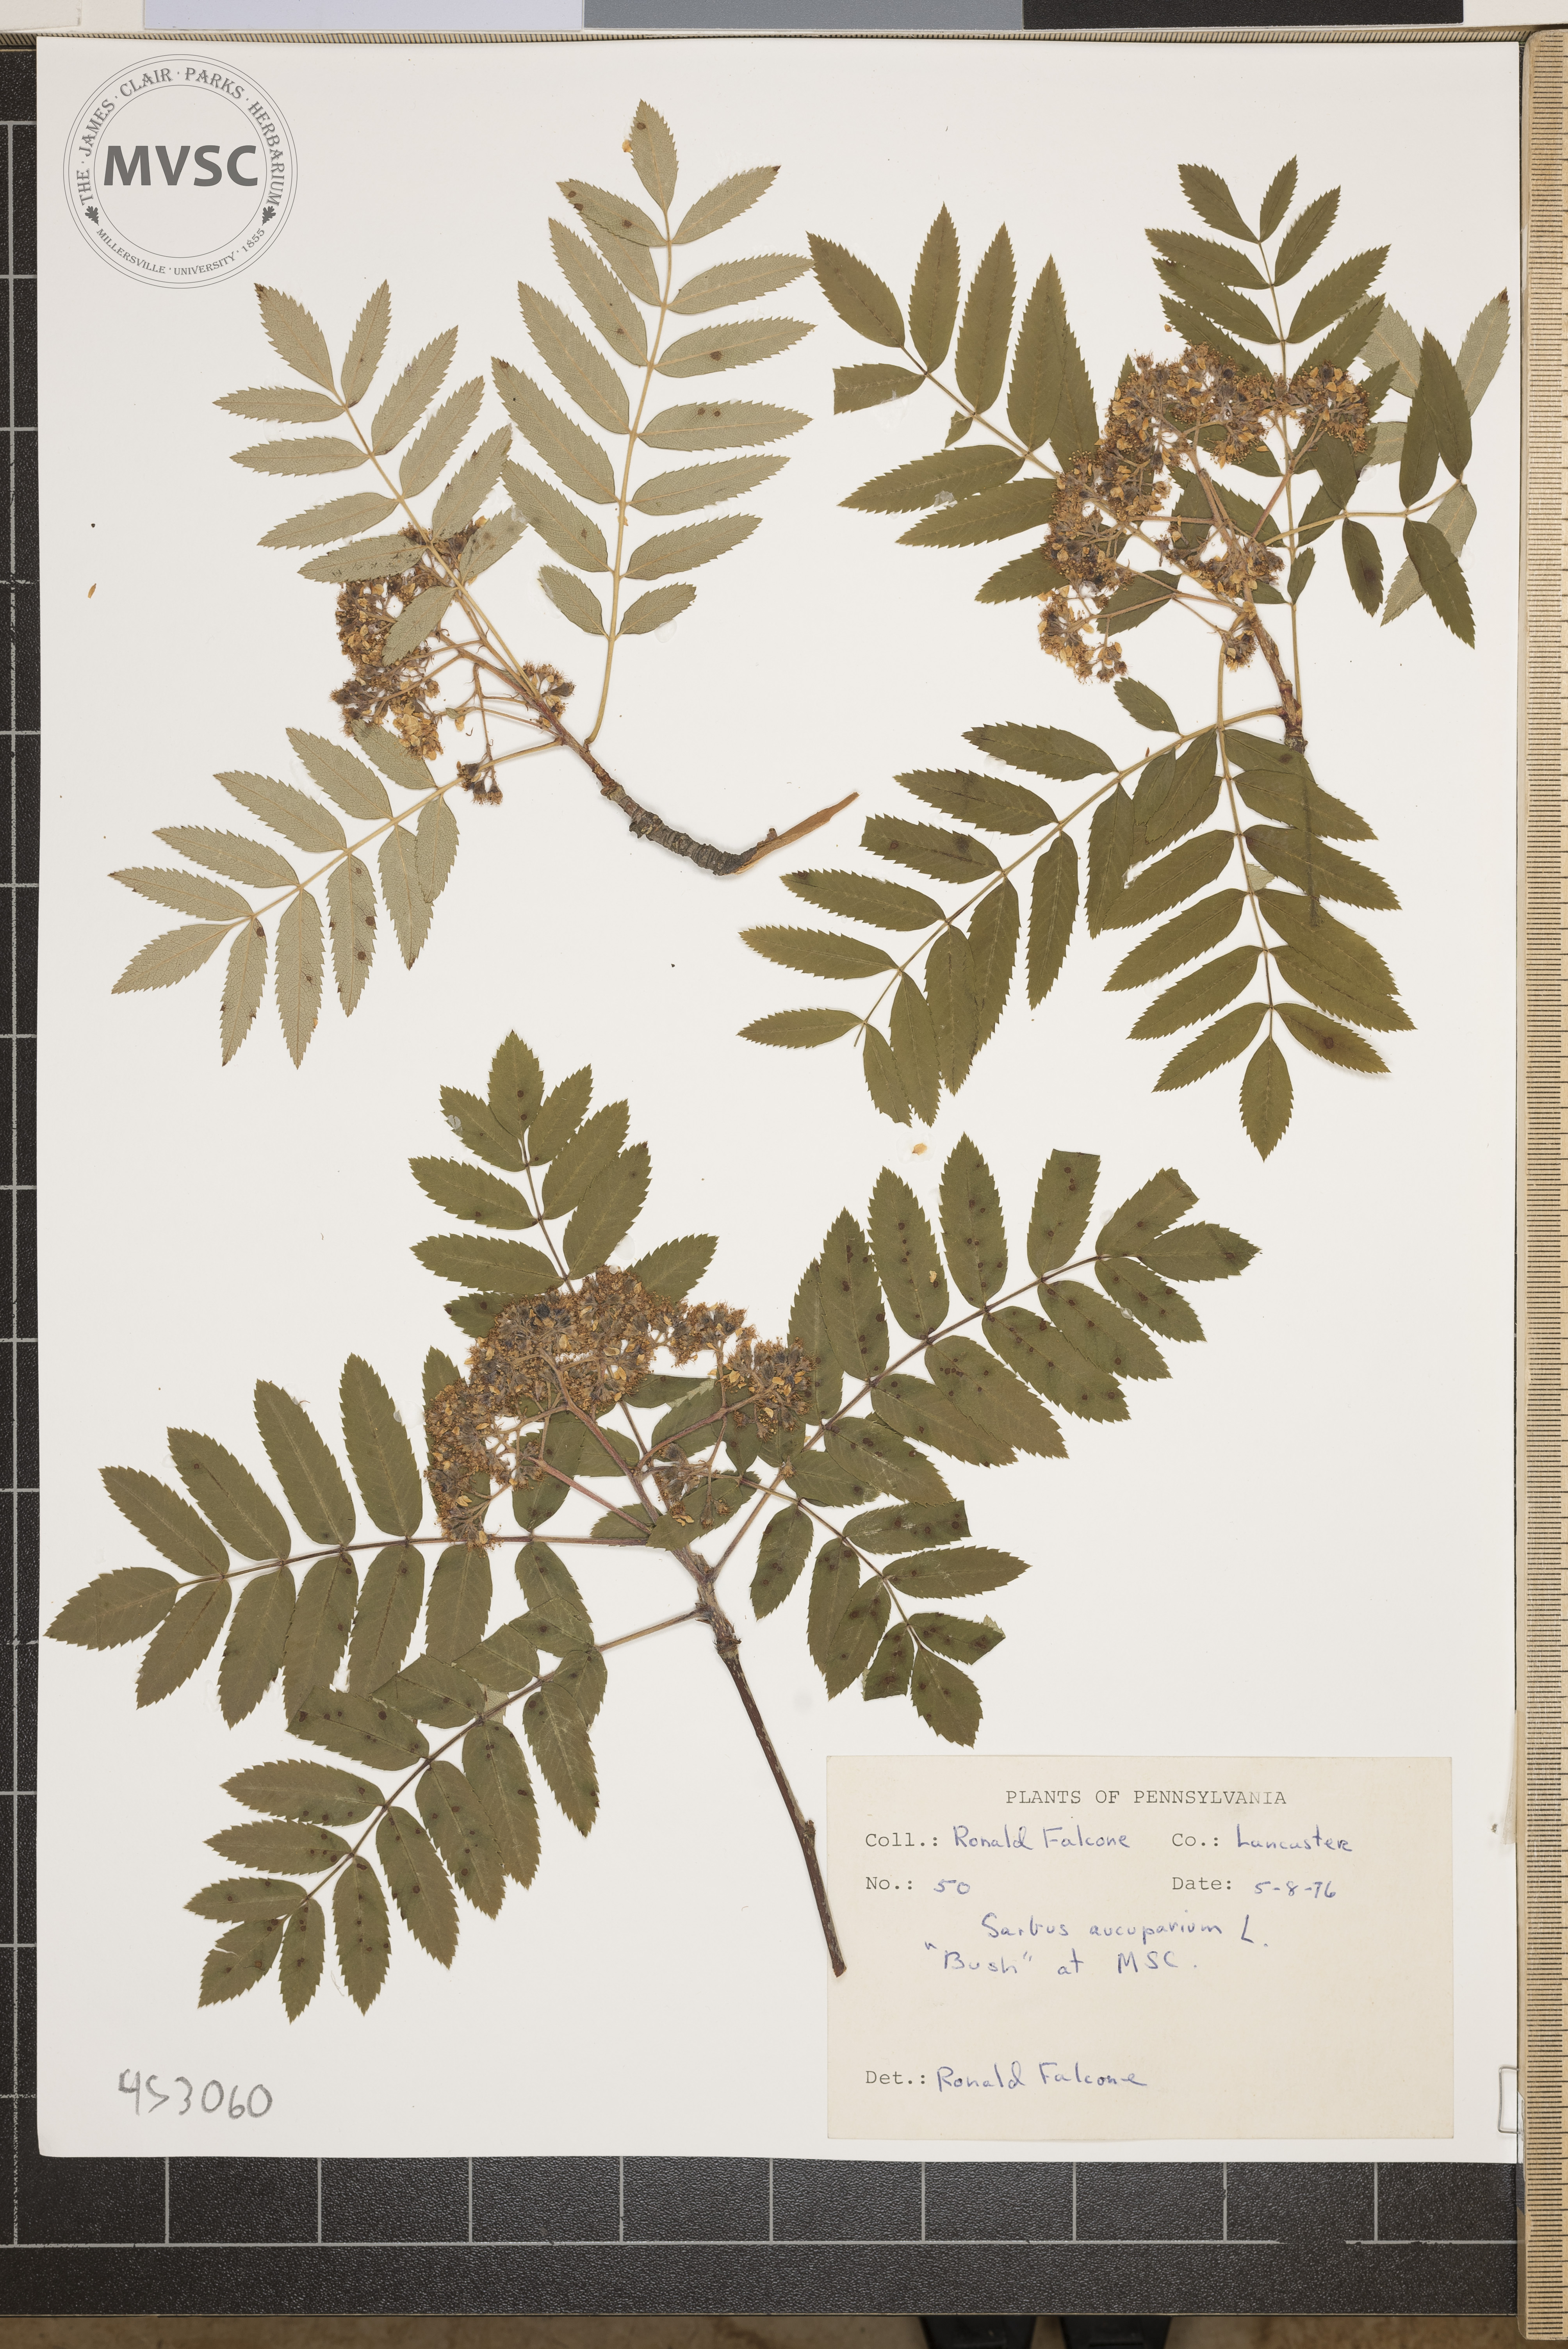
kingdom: Plantae
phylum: Tracheophyta
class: Magnoliopsida
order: Rosales
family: Rosaceae
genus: Sorbus
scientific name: Sorbus aucuparia
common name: Rowan
